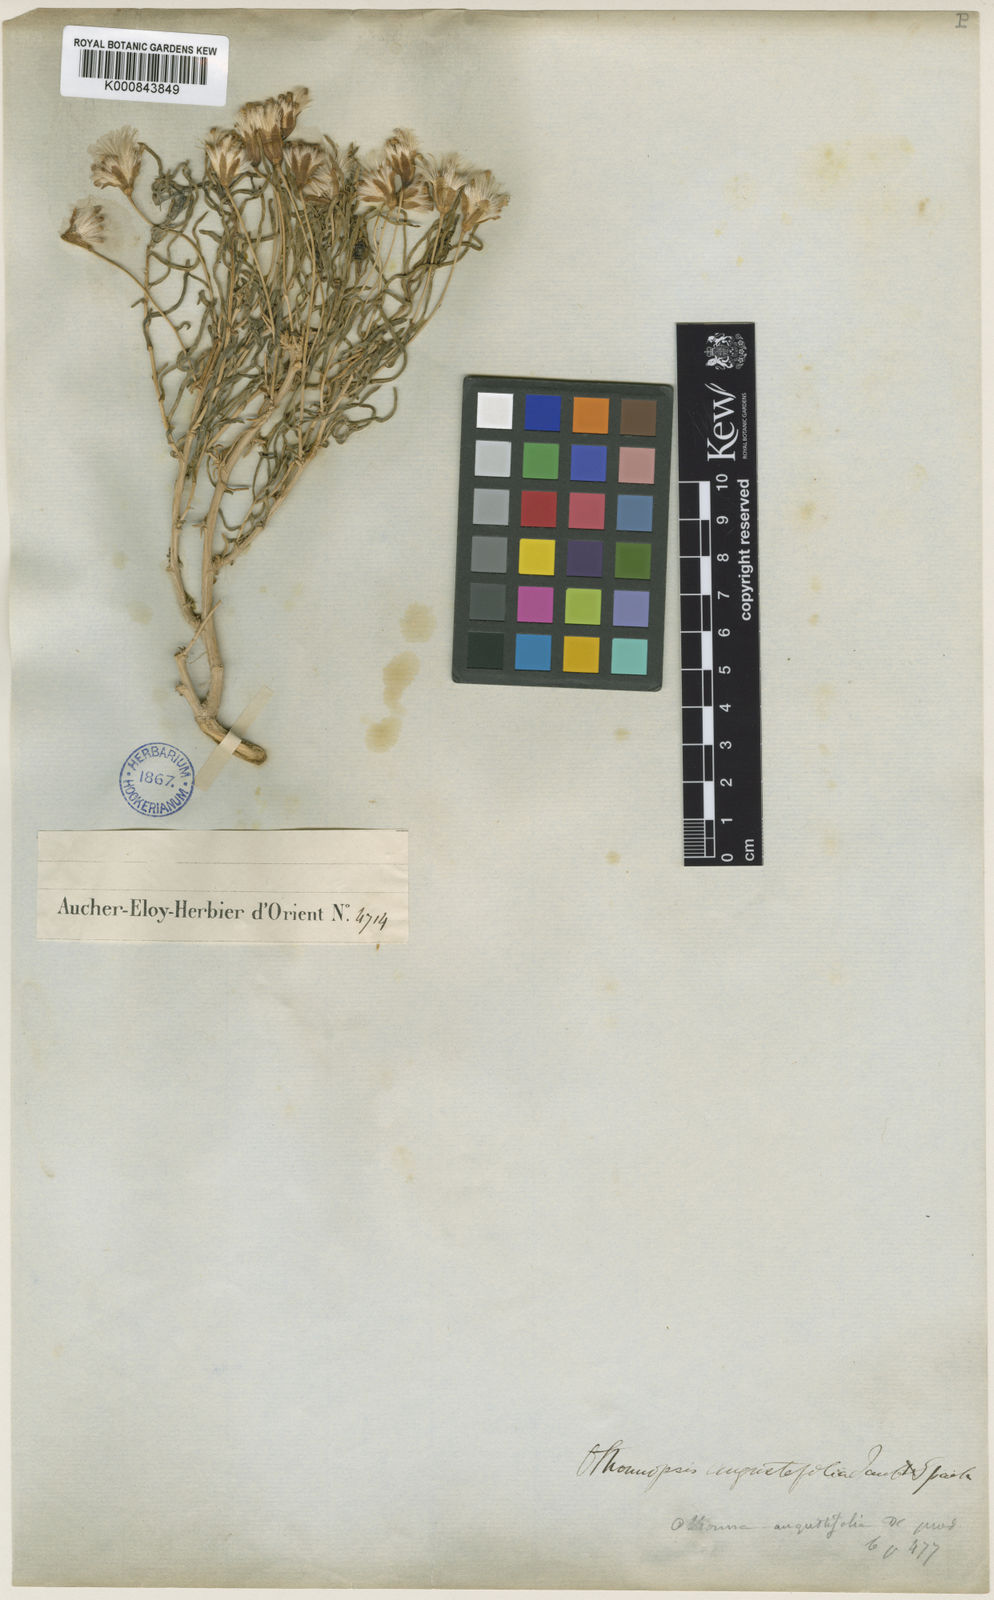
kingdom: Plantae
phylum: Tracheophyta
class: Magnoliopsida
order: Asterales
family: Asteraceae
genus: Hertia
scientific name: Hertia angustifolia
